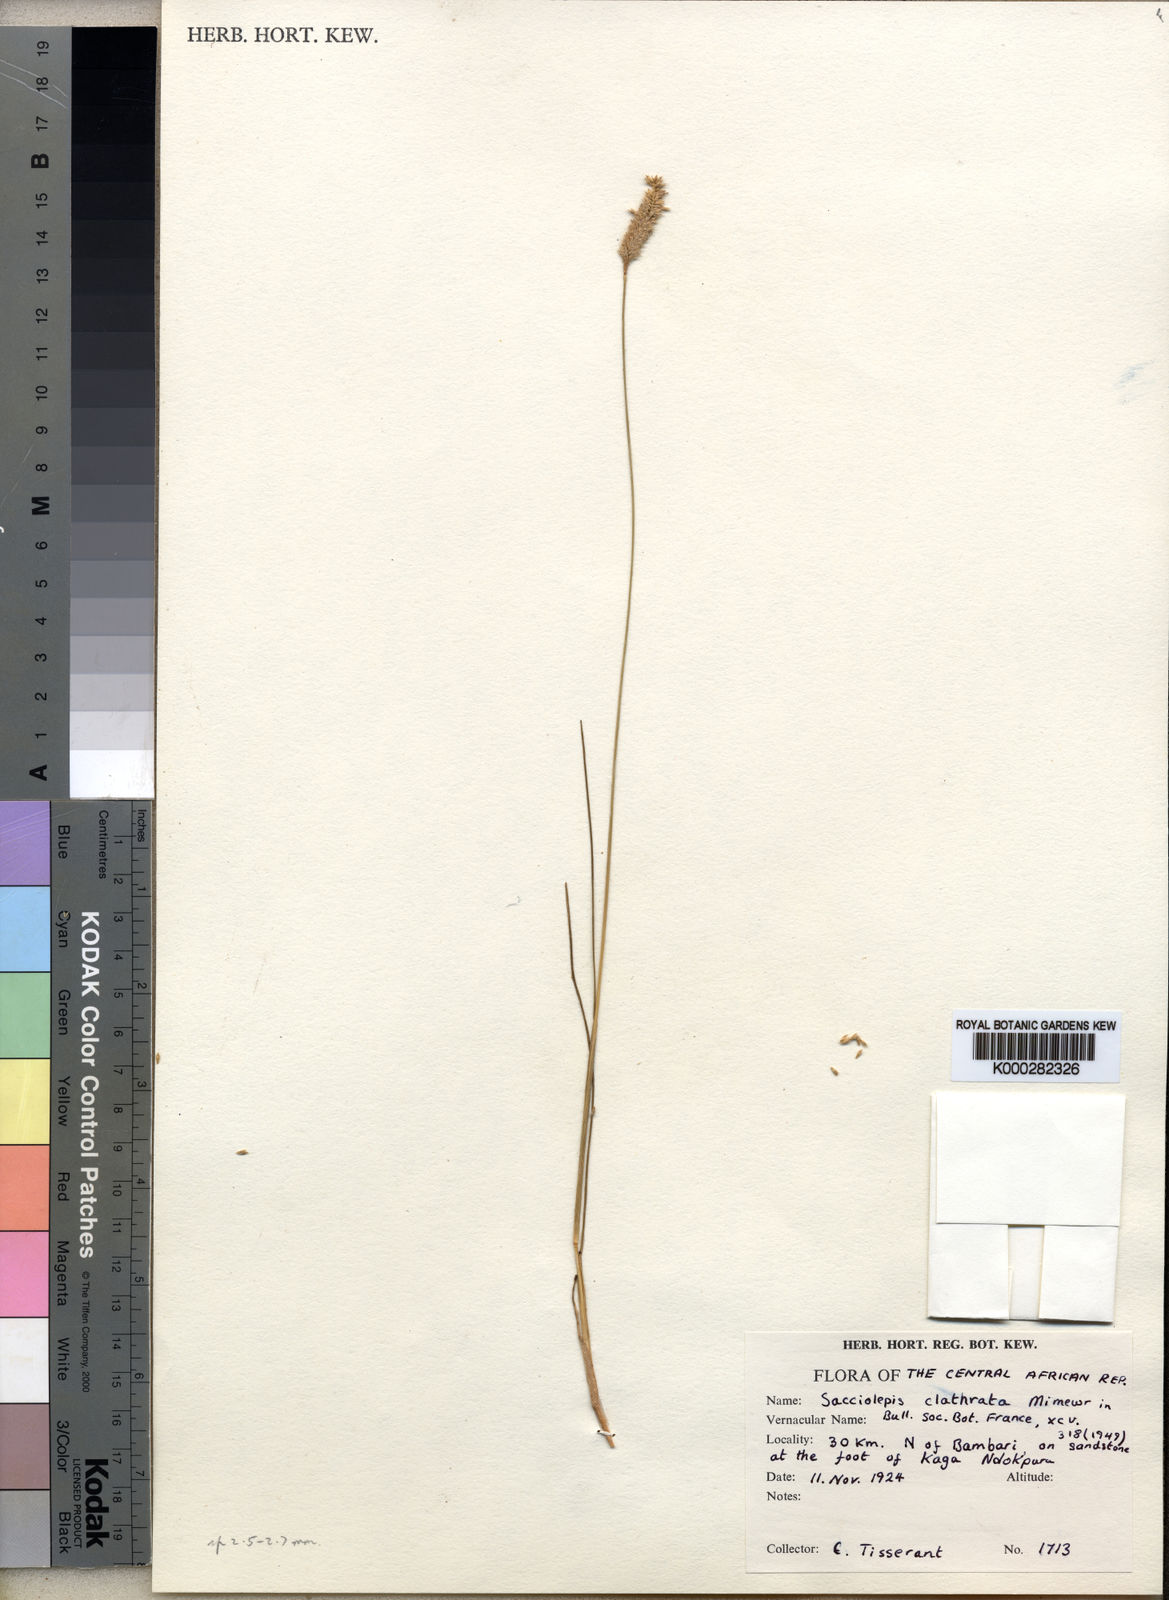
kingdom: Plantae
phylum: Tracheophyta
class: Liliopsida
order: Poales
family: Poaceae
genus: Sacciolepis
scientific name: Sacciolepis clatrata
